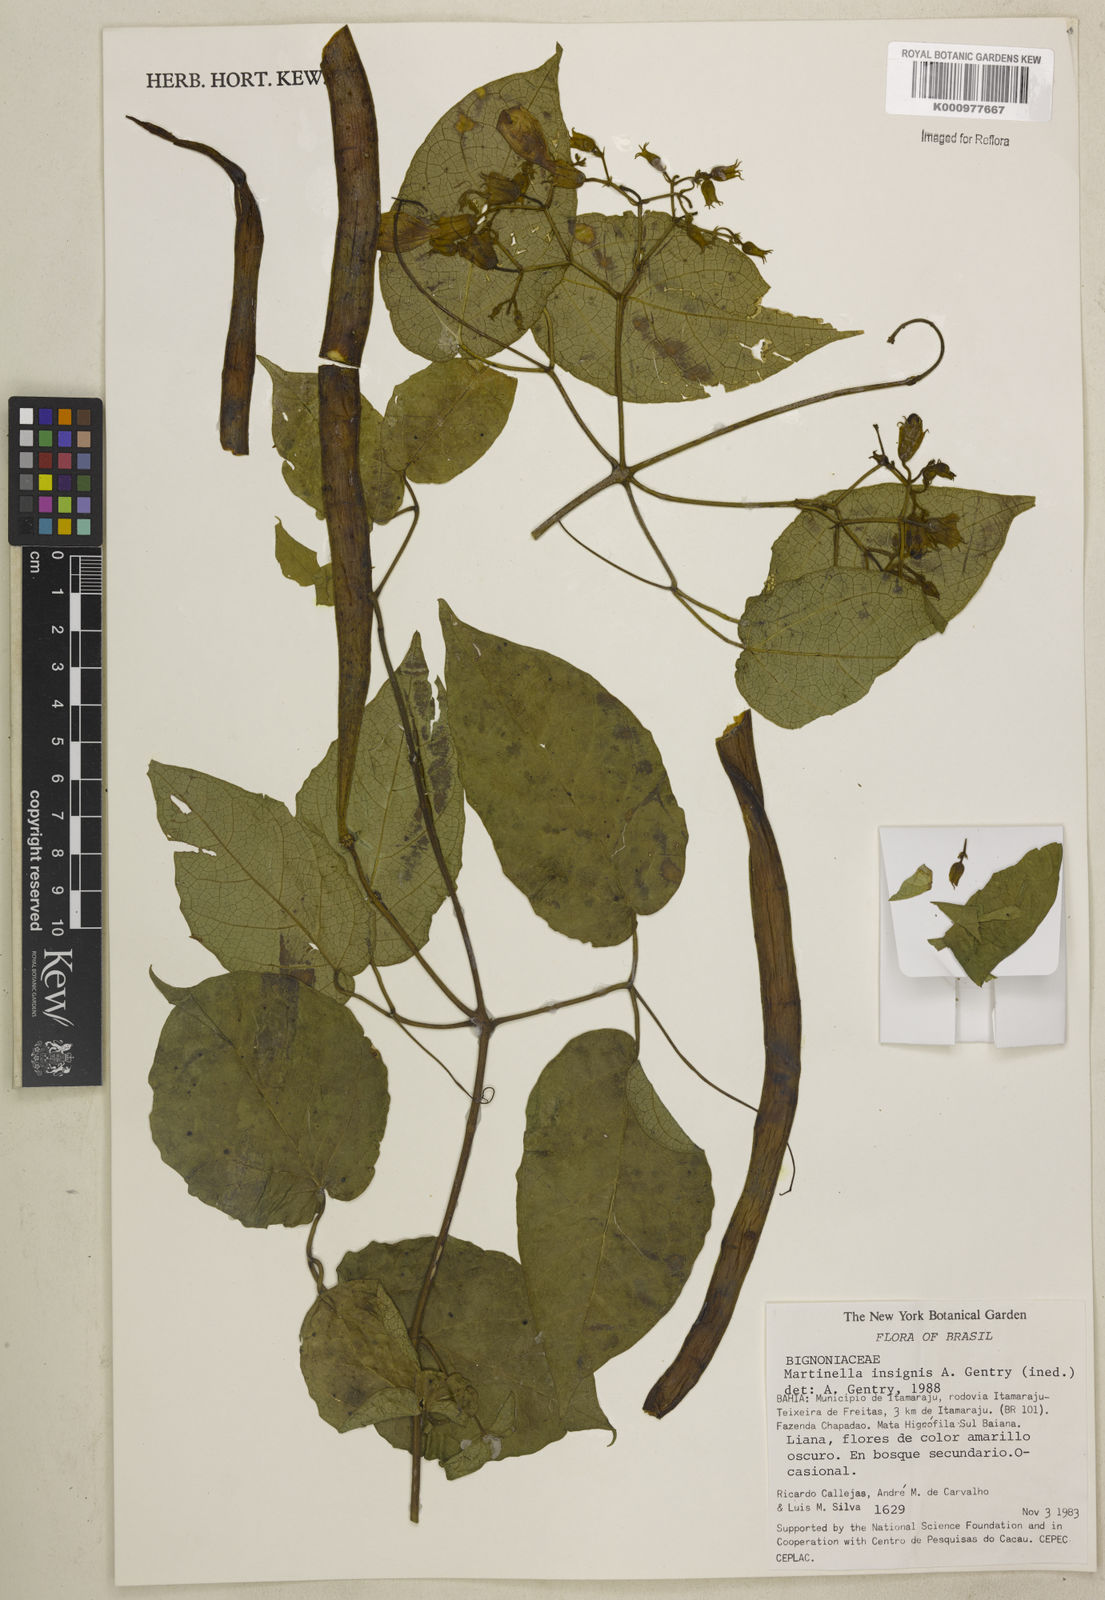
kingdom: Plantae
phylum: Tracheophyta
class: Magnoliopsida
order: Lamiales
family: Bignoniaceae
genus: Martinella
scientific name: Martinella insignis
